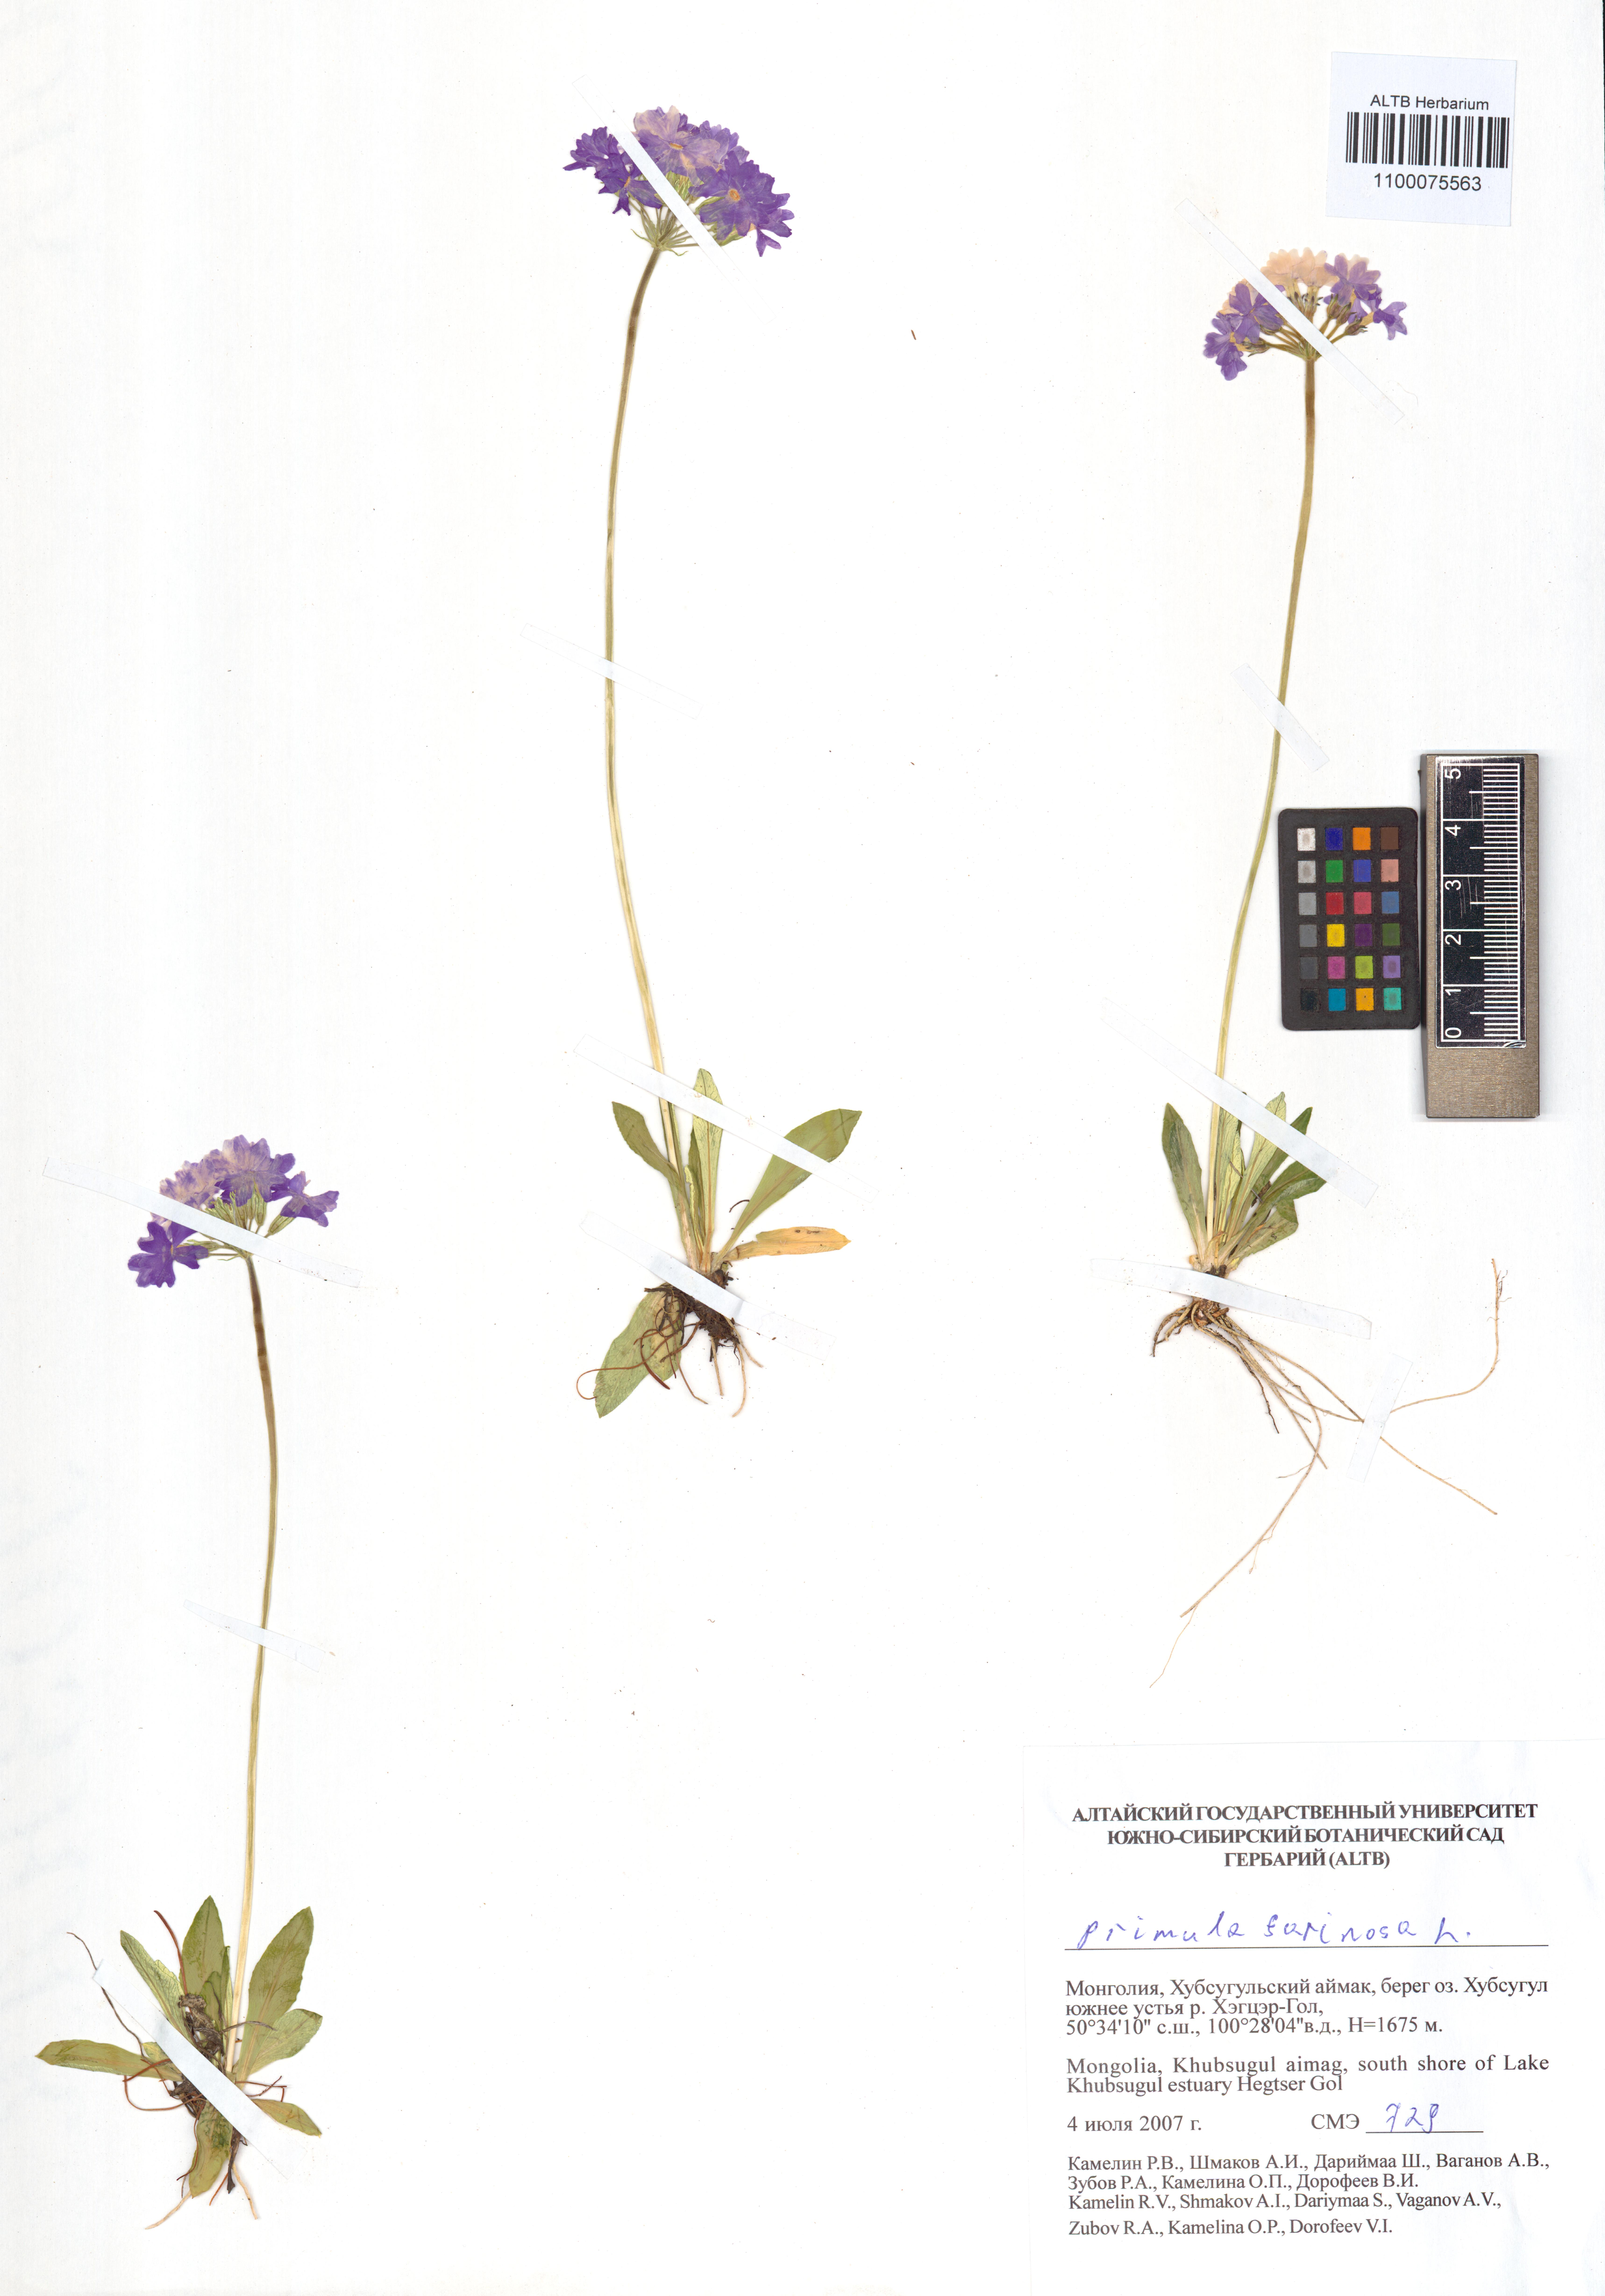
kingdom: Plantae
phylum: Tracheophyta
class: Magnoliopsida
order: Ericales
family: Primulaceae
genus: Primula
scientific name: Primula farinosa
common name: Bird's-eye primrose
